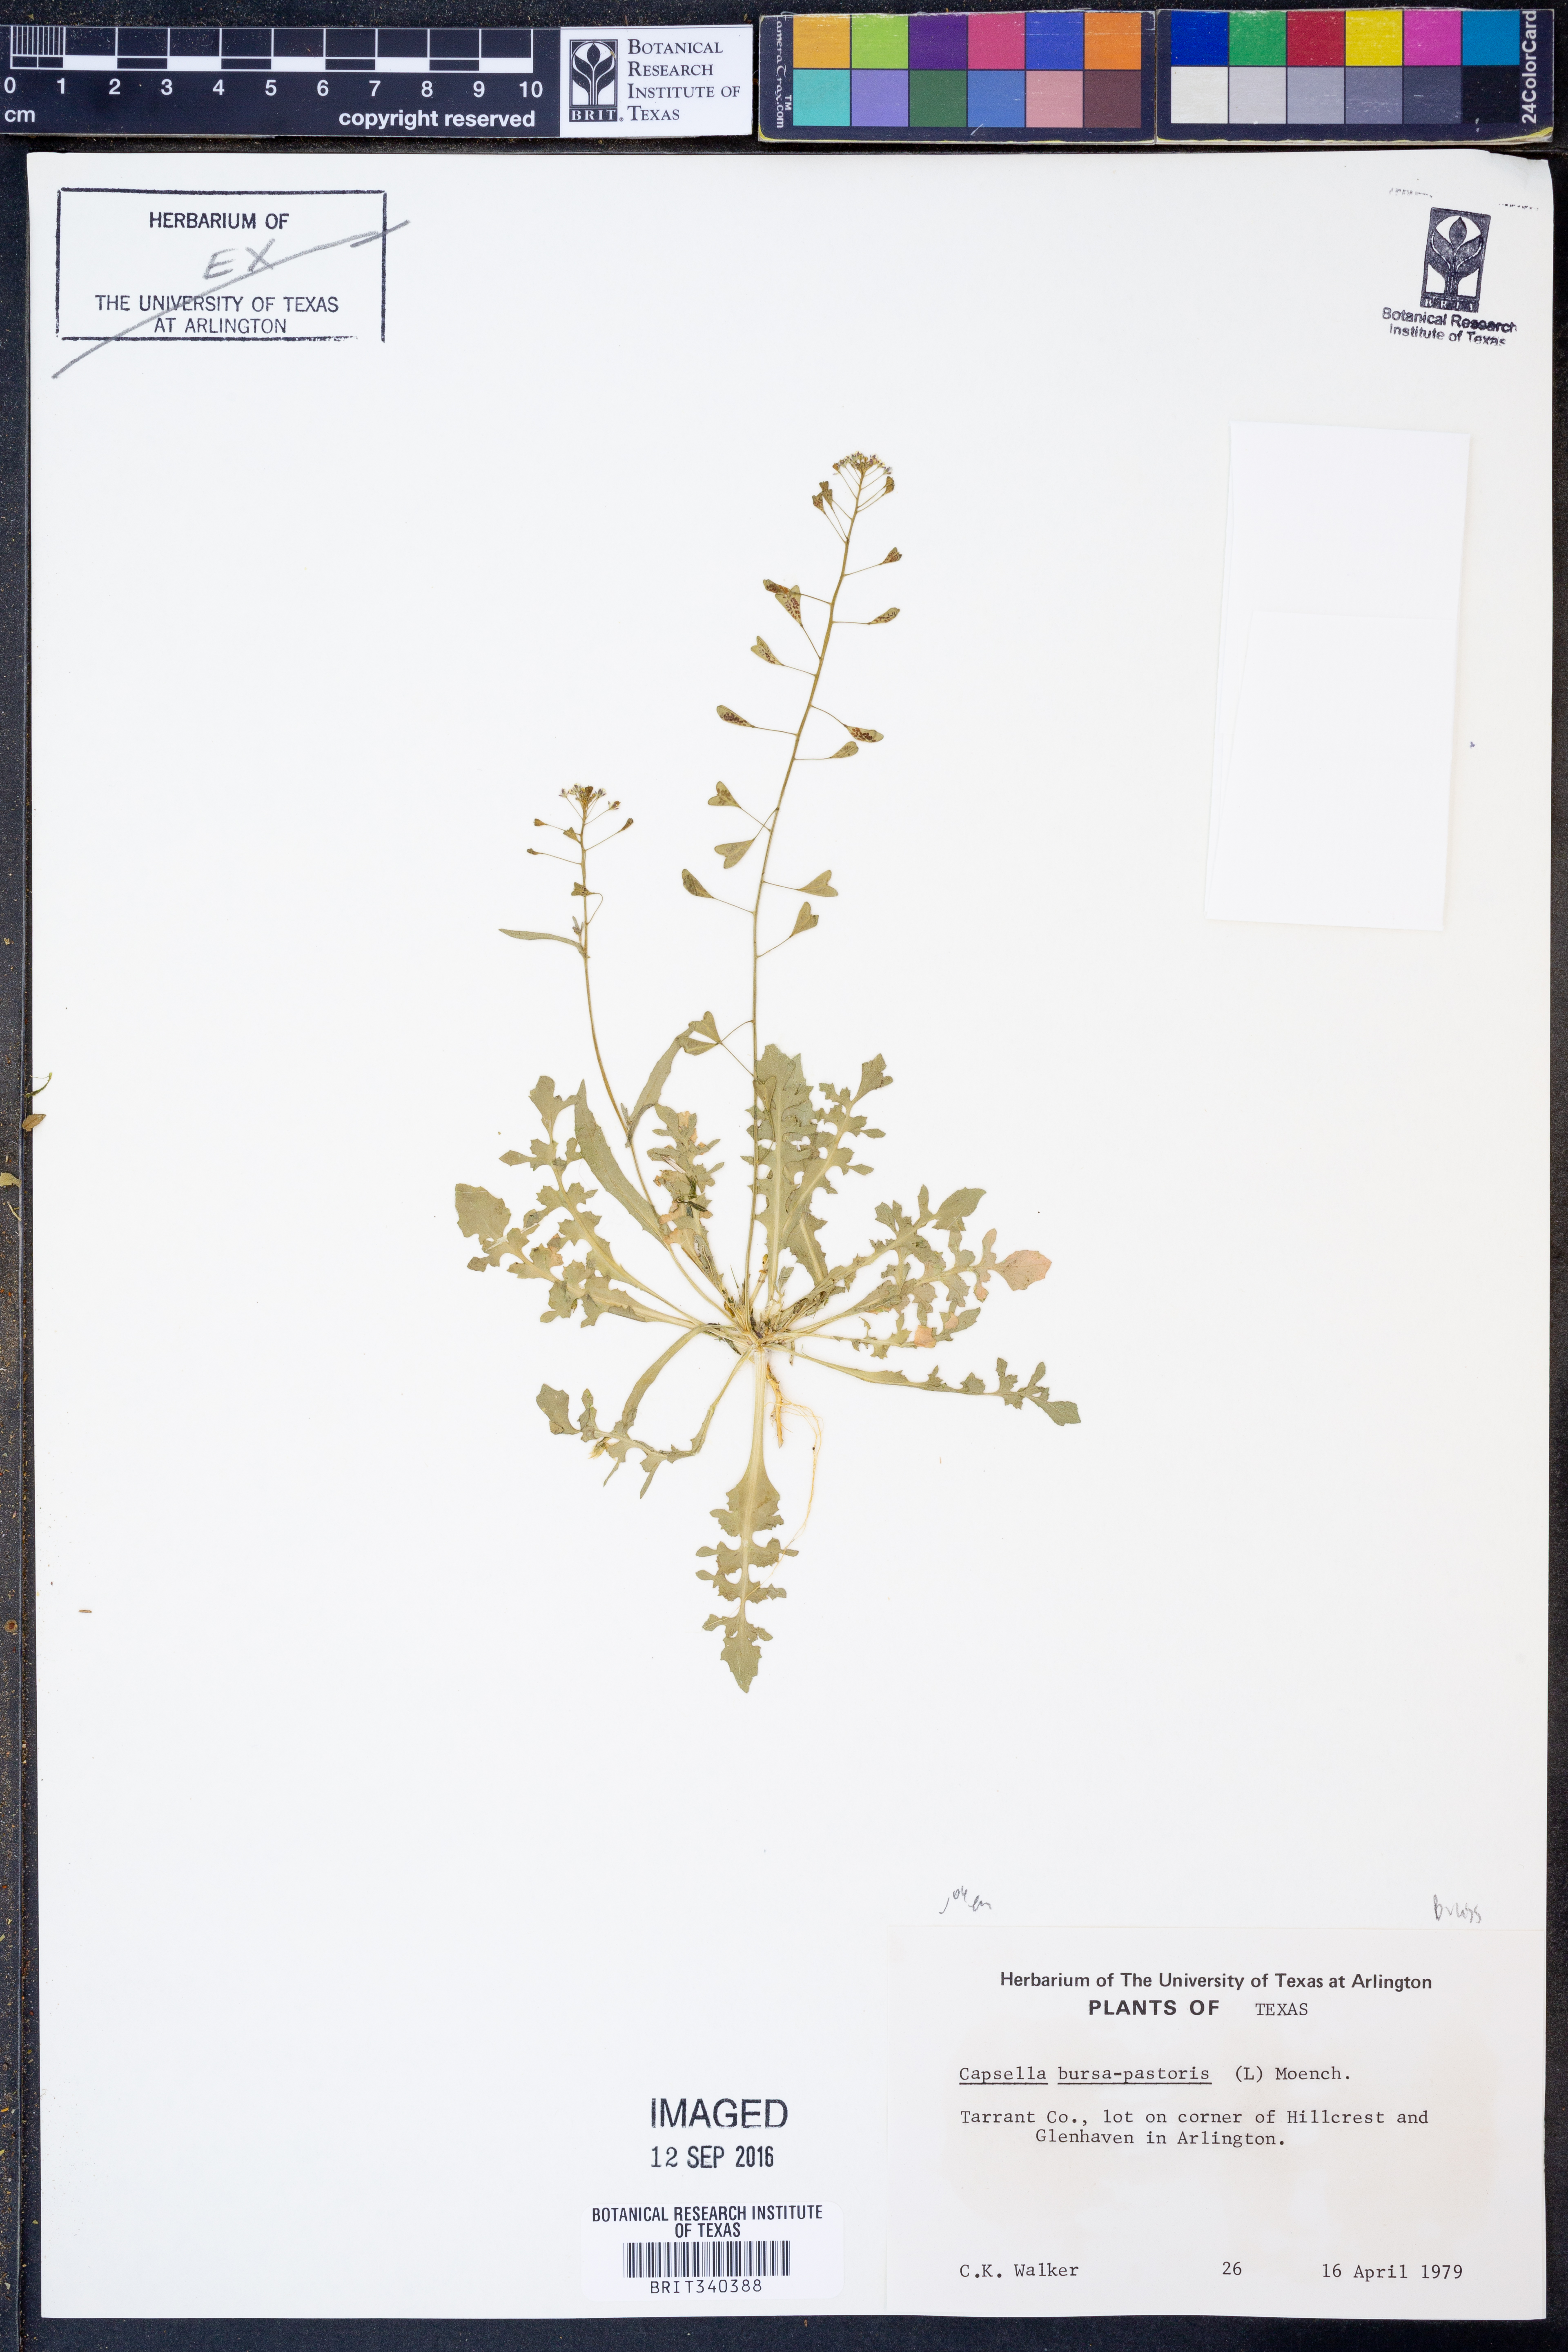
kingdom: Plantae
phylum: Tracheophyta
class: Magnoliopsida
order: Brassicales
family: Brassicaceae
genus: Capsella
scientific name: Capsella bursa-pastoris
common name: Shepherd's purse
